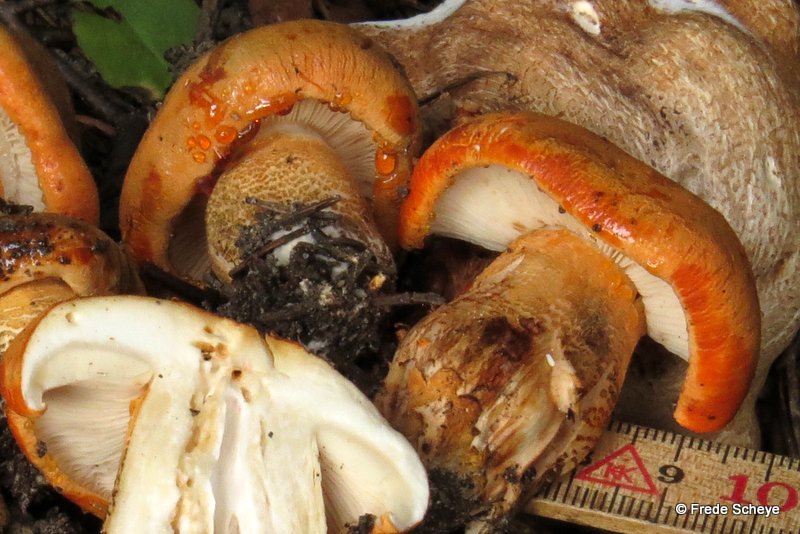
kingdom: Fungi
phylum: Basidiomycota
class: Agaricomycetes
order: Agaricales
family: Tricholomataceae
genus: Tricholoma
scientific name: Tricholoma aurantium
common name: orangegul ridderhat
